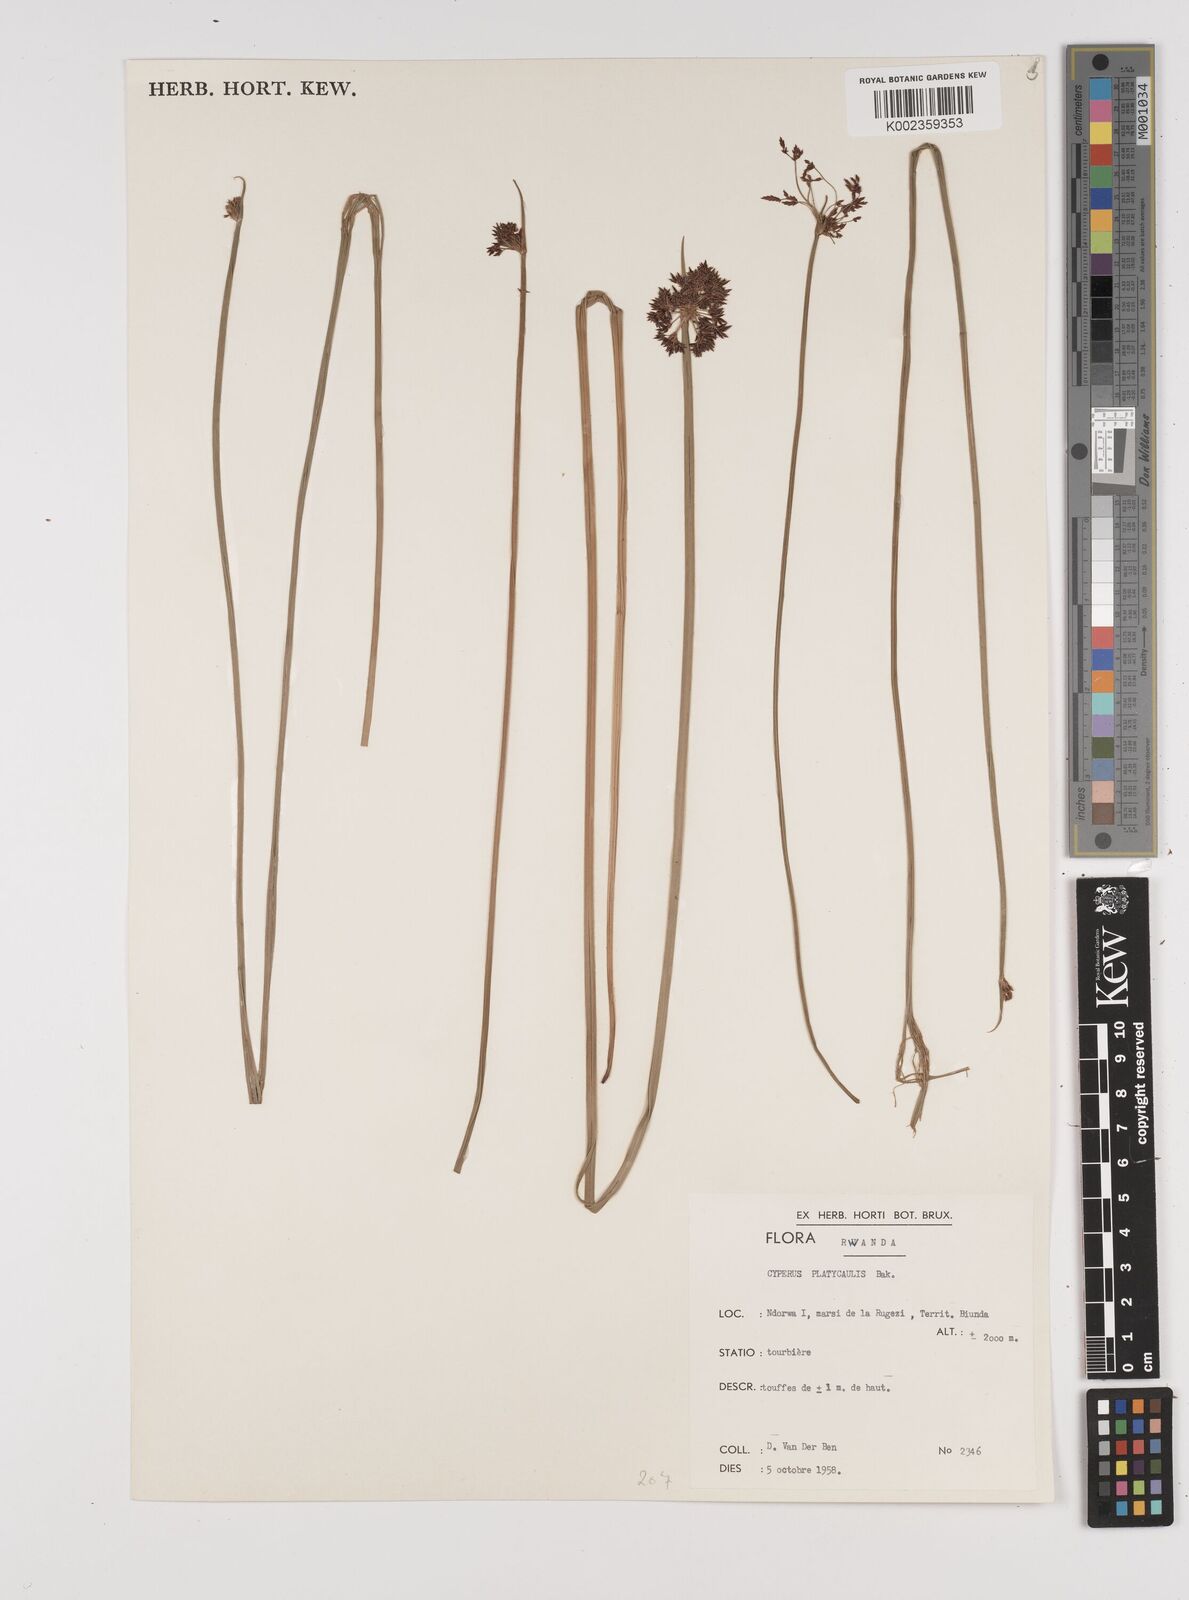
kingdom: Plantae
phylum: Tracheophyta
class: Liliopsida
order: Poales
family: Cyperaceae
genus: Cyperus
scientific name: Cyperus platycaulis
